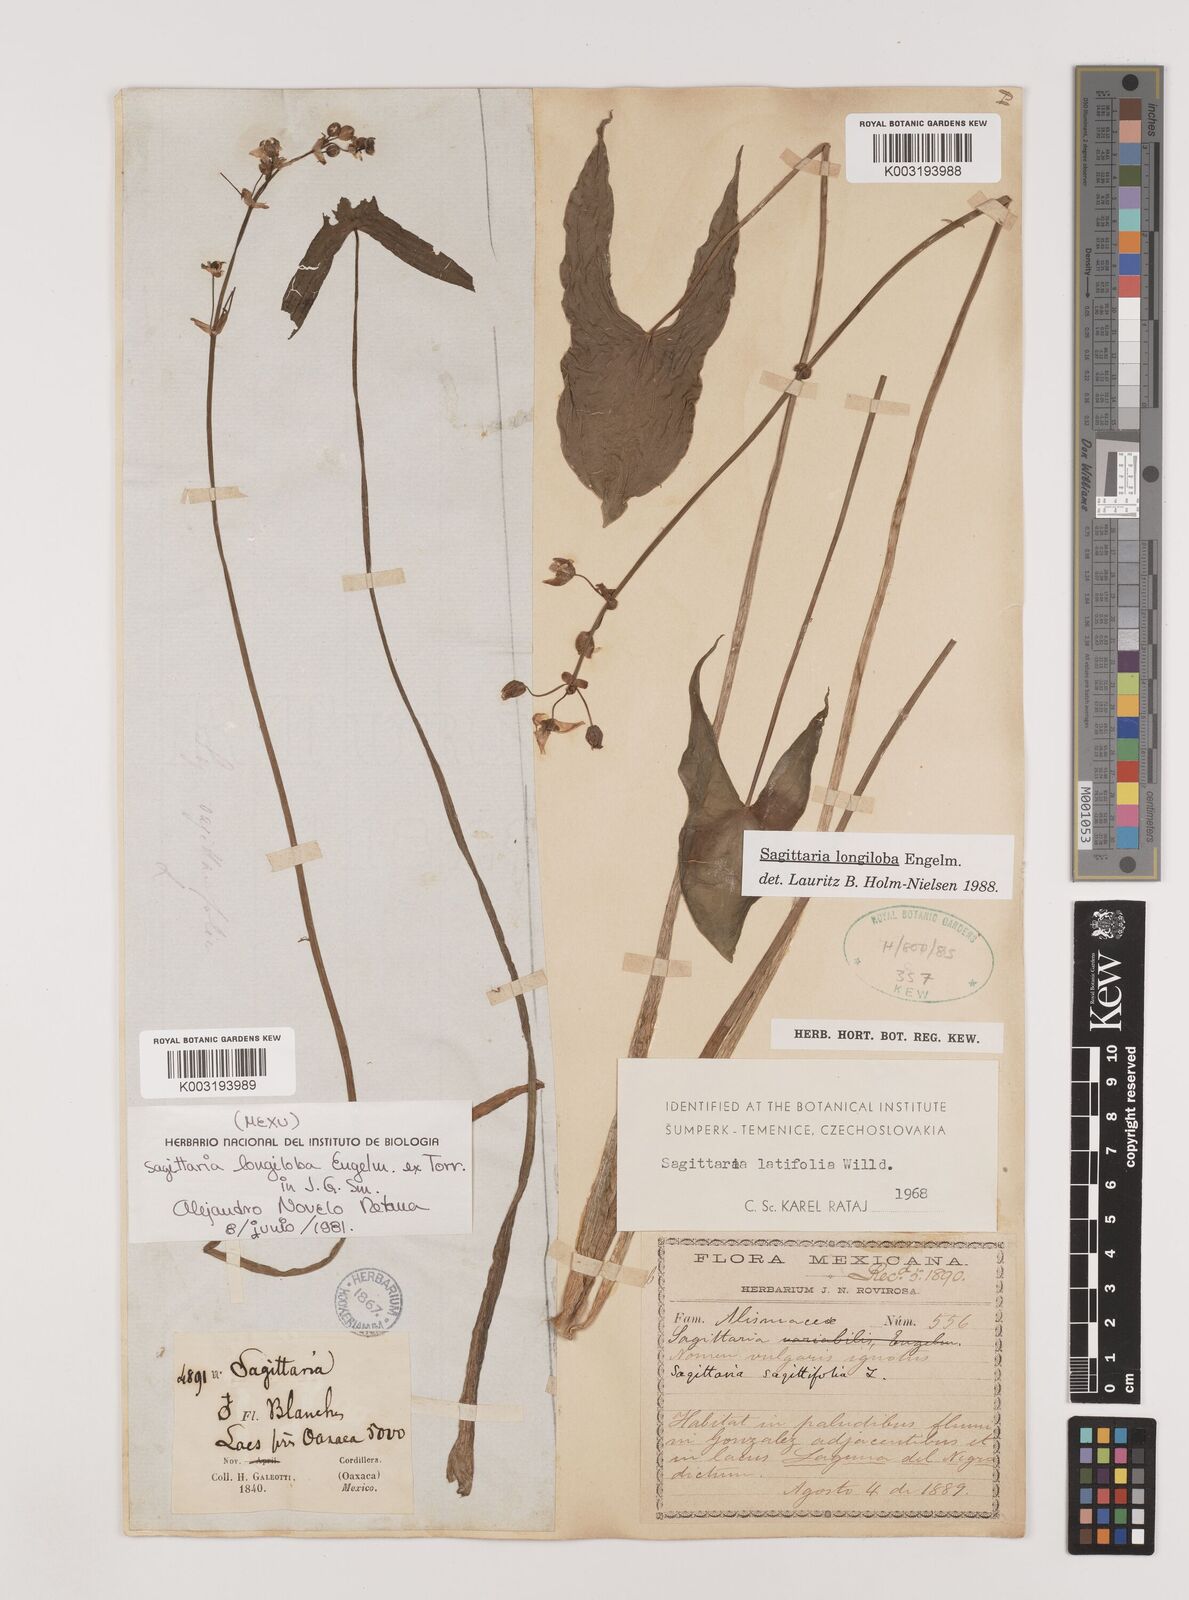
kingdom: Plantae
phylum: Tracheophyta
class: Liliopsida
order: Alismatales
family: Alismataceae
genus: Sagittaria
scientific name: Sagittaria longiloba
